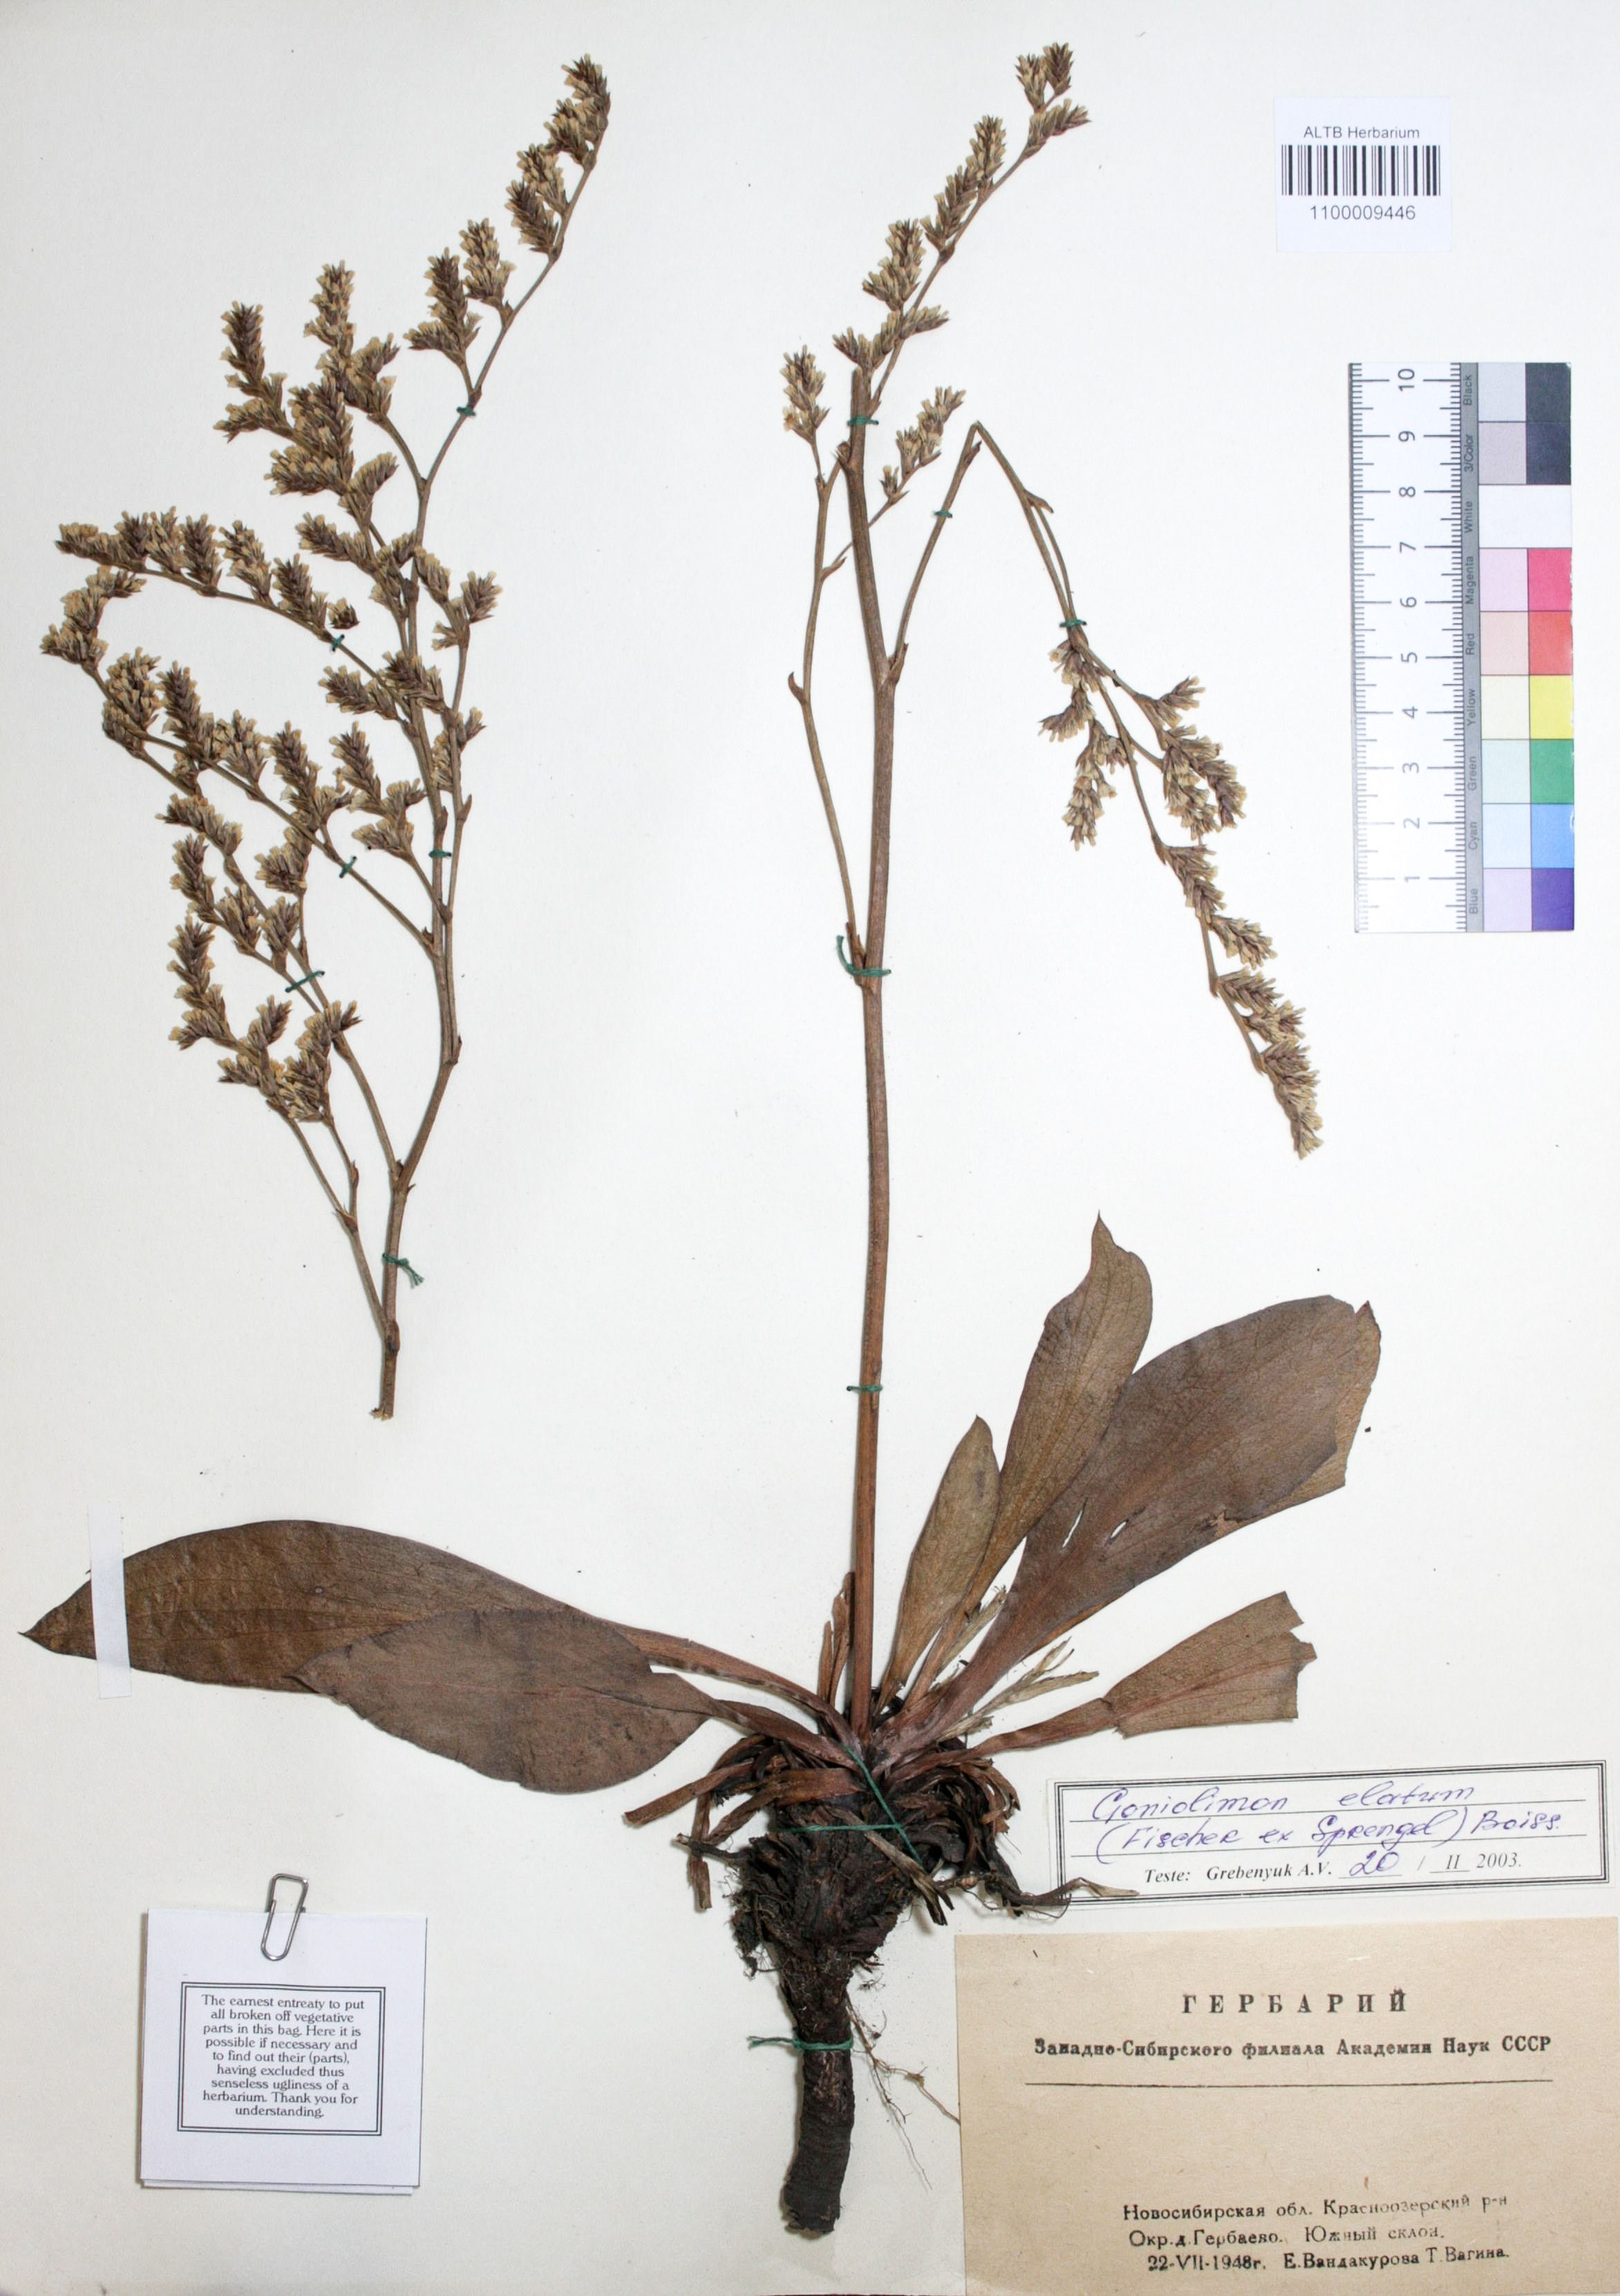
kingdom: Plantae
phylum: Tracheophyta
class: Magnoliopsida
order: Caryophyllales
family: Plumbaginaceae
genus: Goniolimon
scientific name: Goniolimon elatum
